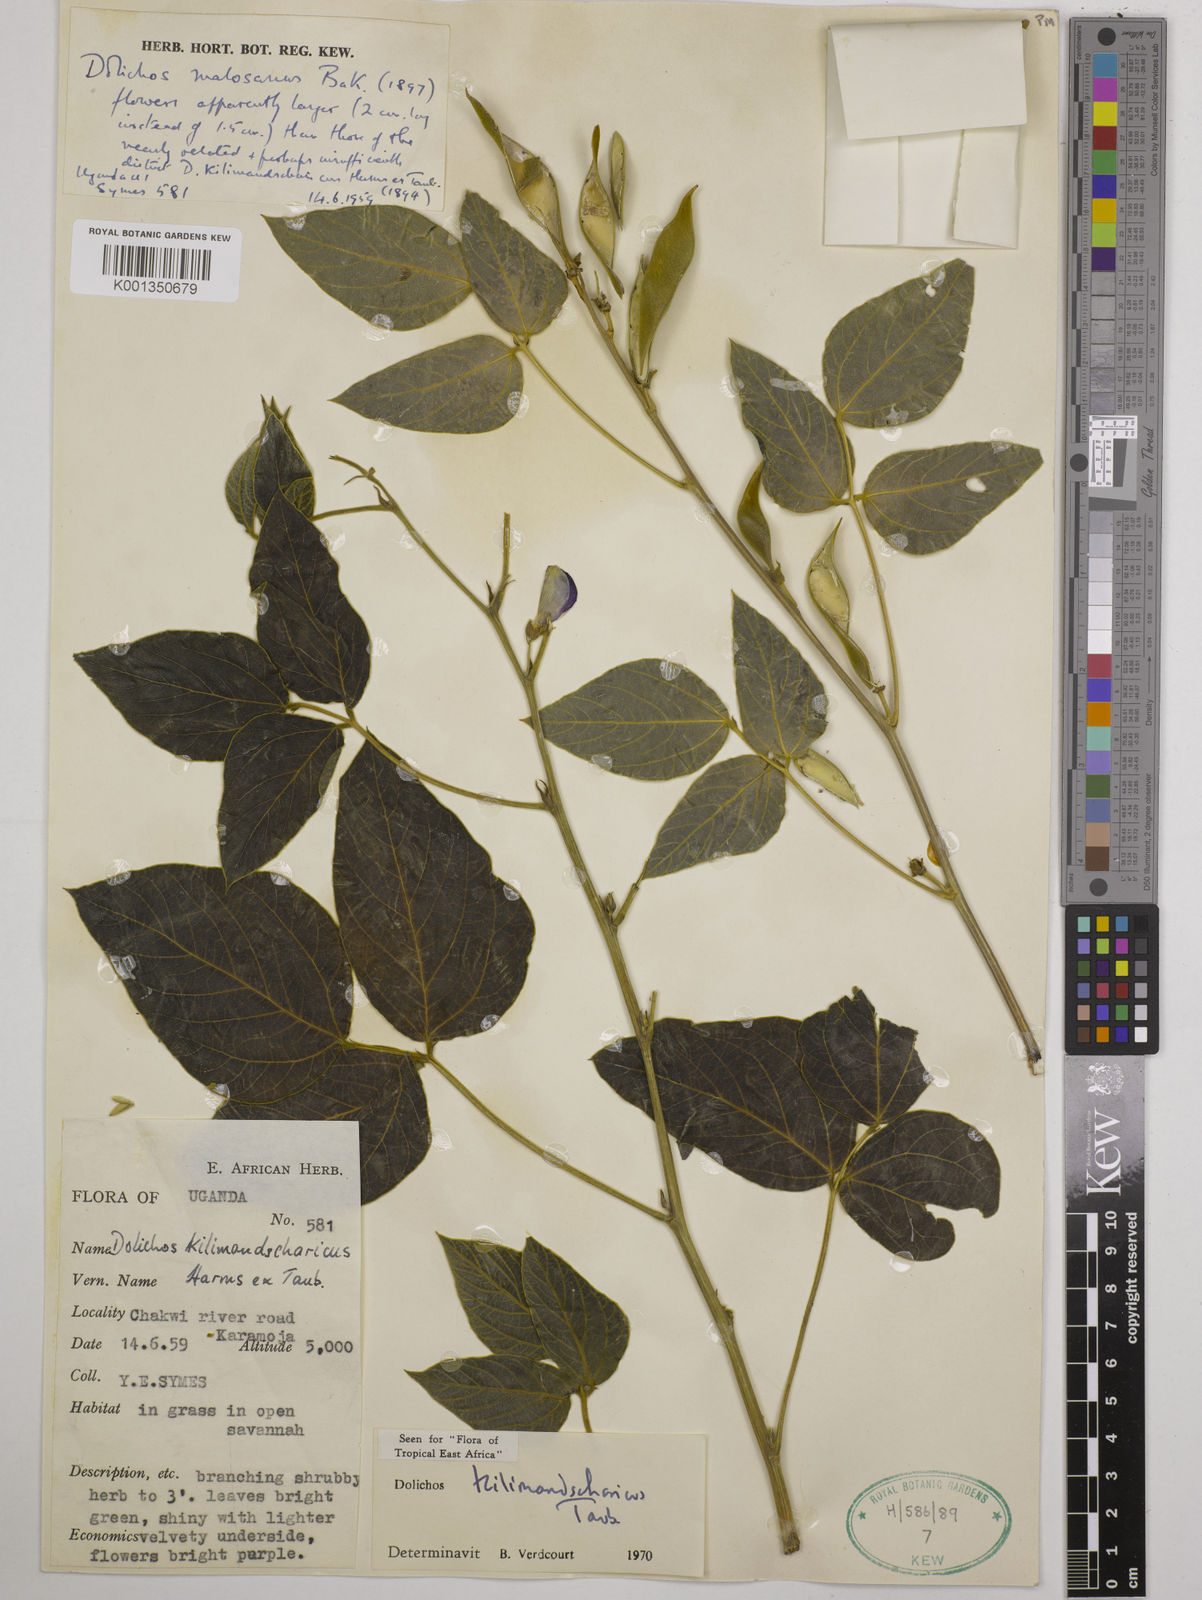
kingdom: Plantae
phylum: Tracheophyta
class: Magnoliopsida
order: Fabales
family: Fabaceae
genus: Dolichos
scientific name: Dolichos kilimandscharicus
